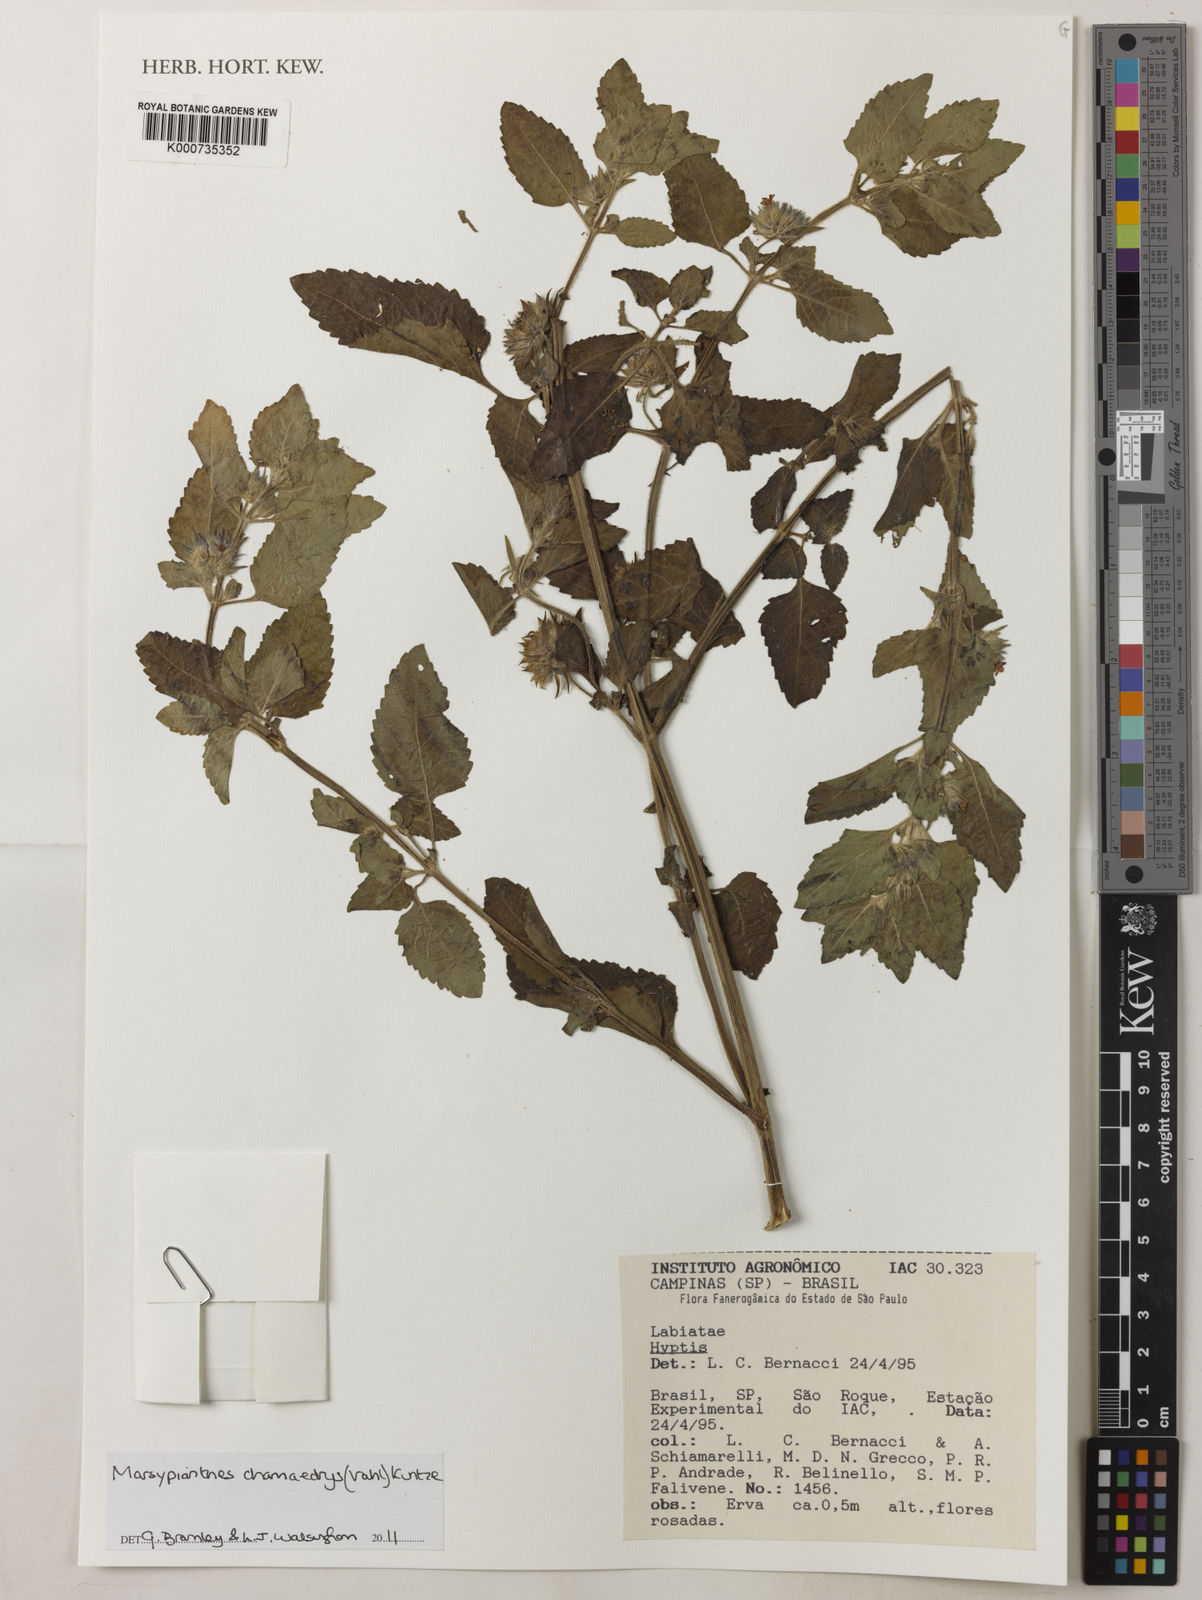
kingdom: Plantae
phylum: Tracheophyta
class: Magnoliopsida
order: Lamiales
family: Lamiaceae
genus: Marsypianthes
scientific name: Marsypianthes chamaedrys
